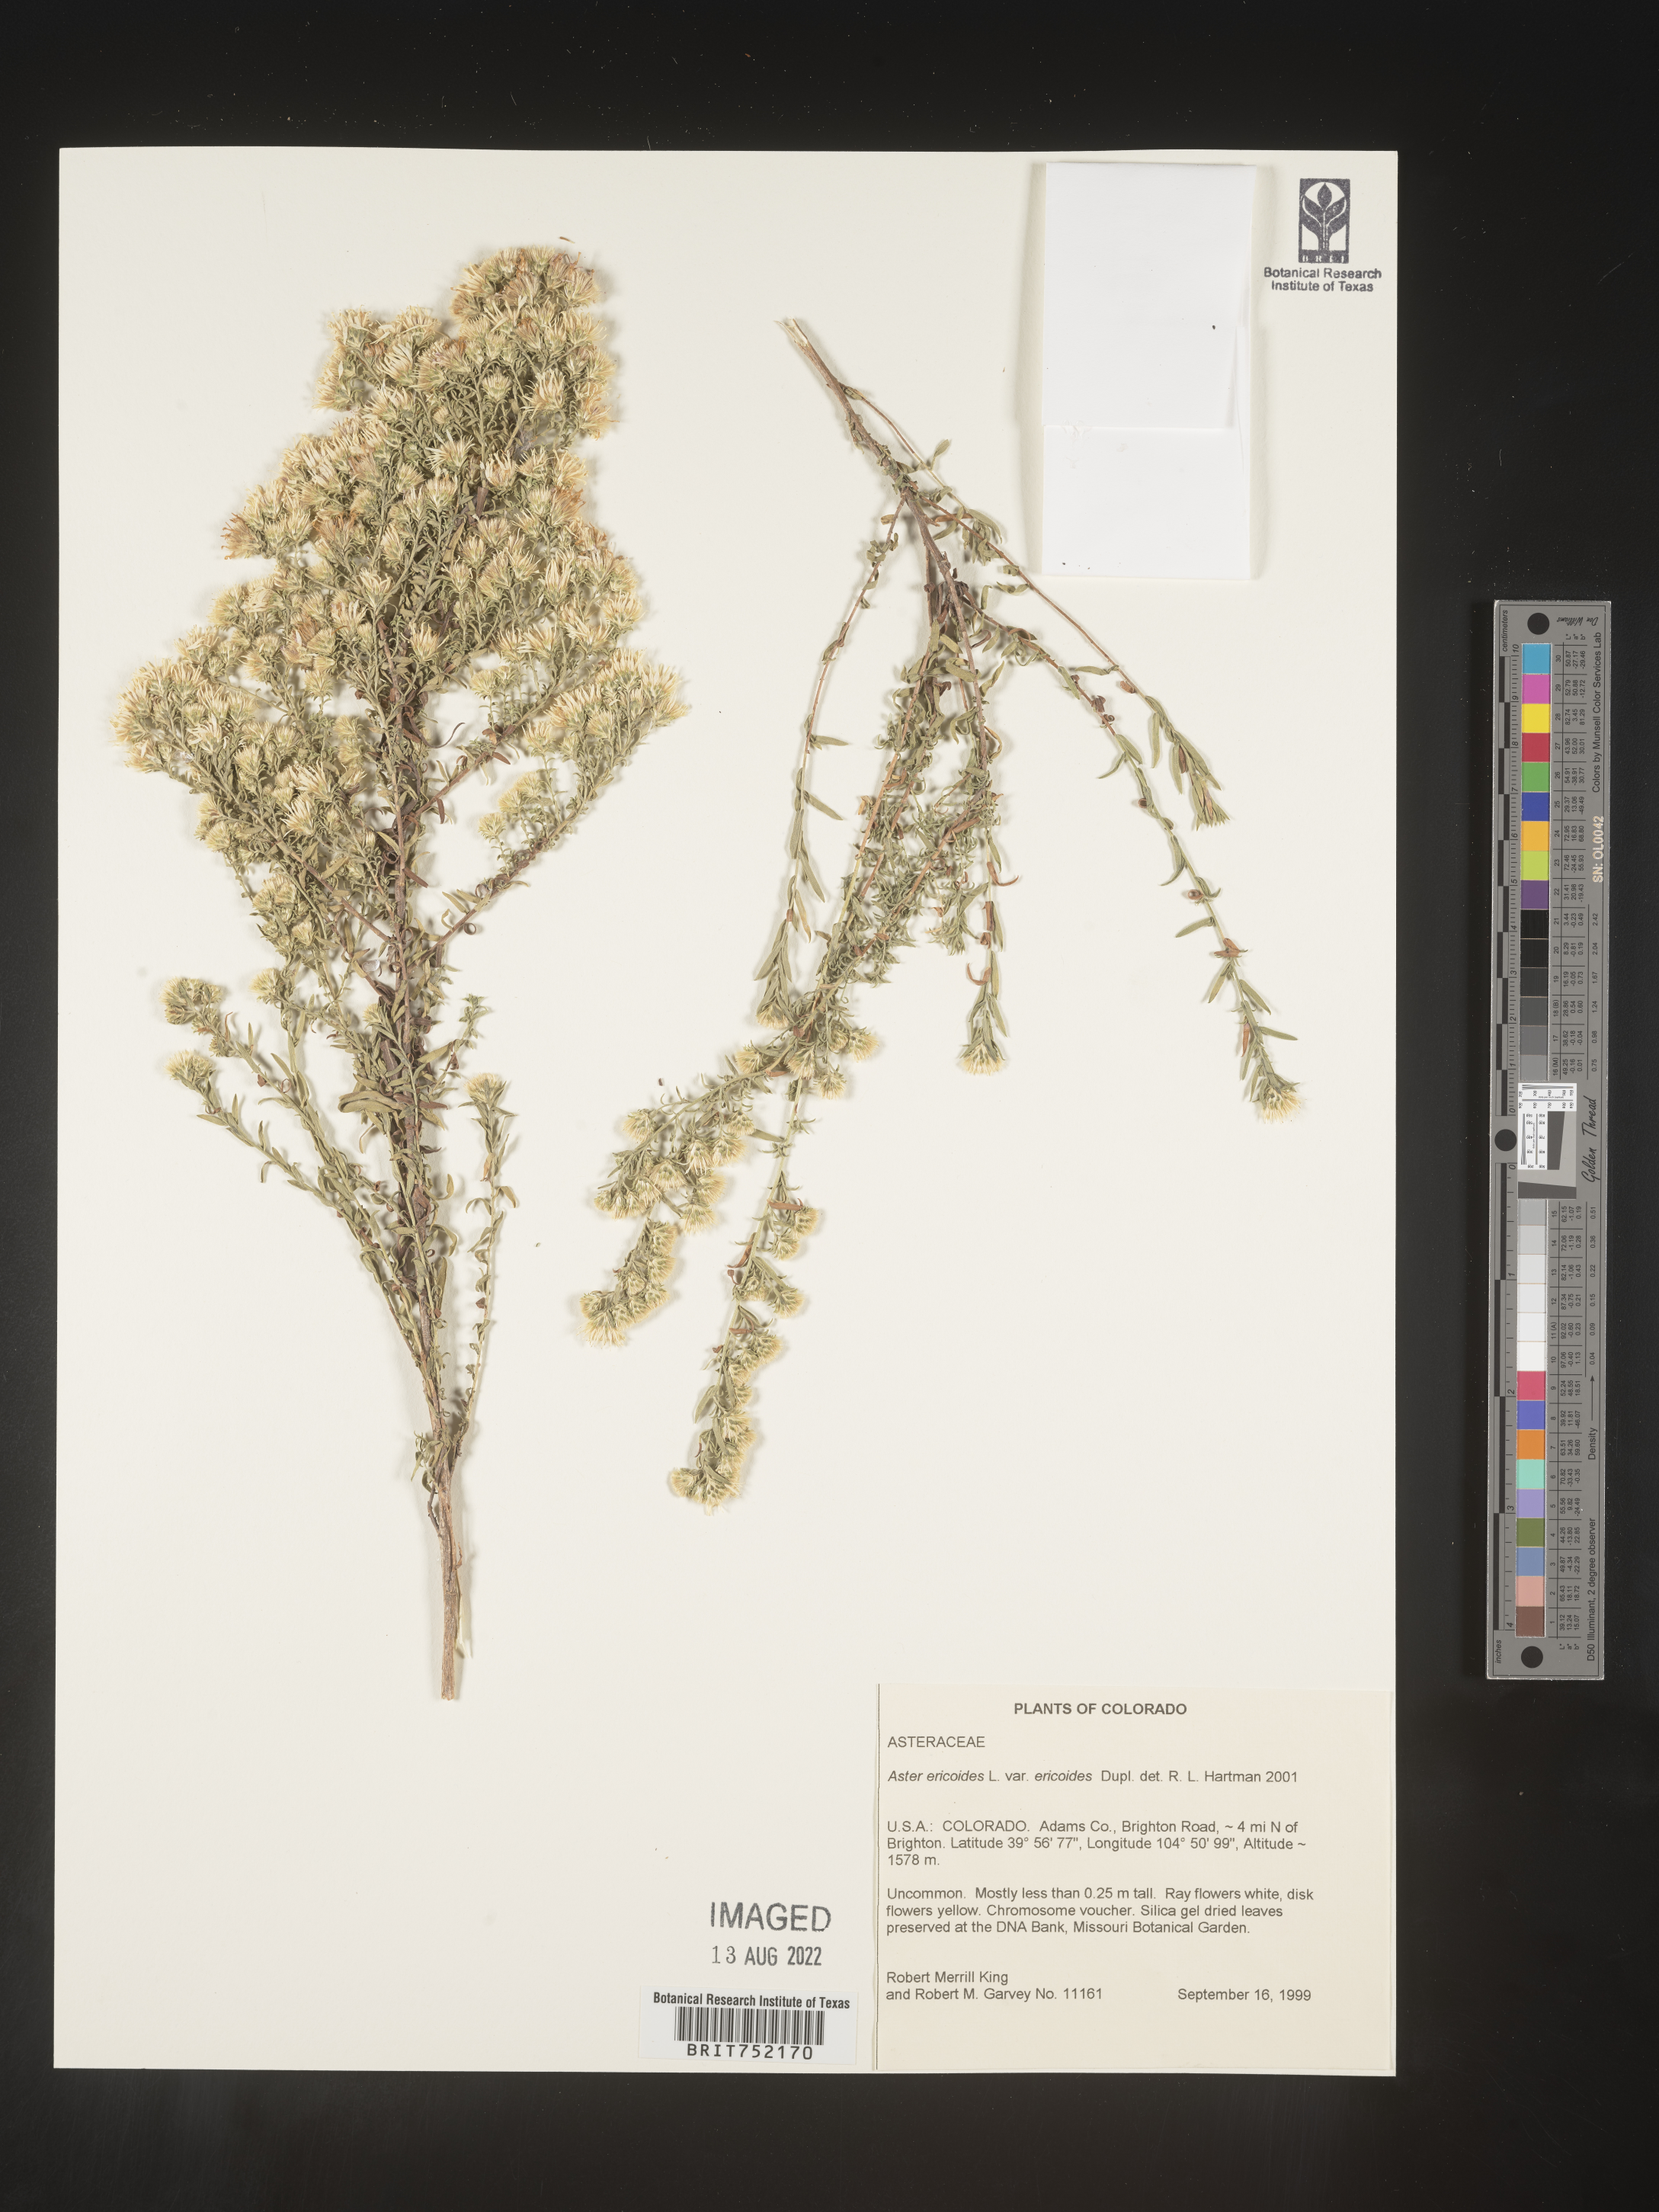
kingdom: Plantae
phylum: Tracheophyta
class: Magnoliopsida
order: Asterales
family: Asteraceae
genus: Symphyotrichum
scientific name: Symphyotrichum ericoides
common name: Heath aster
